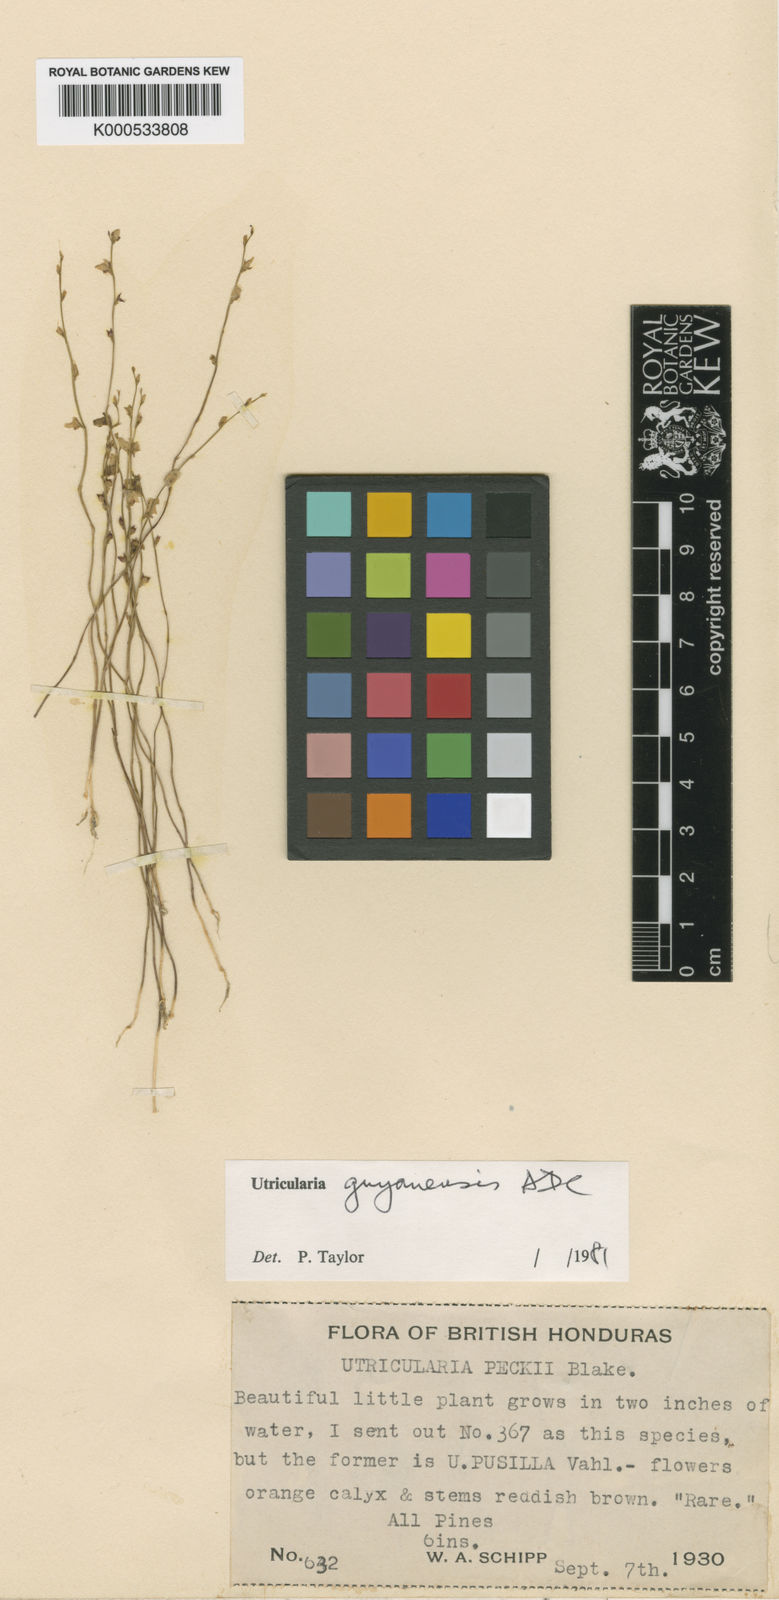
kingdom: Plantae
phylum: Tracheophyta
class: Magnoliopsida
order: Lamiales
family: Lentibulariaceae
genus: Utricularia
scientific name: Utricularia guyanensis
